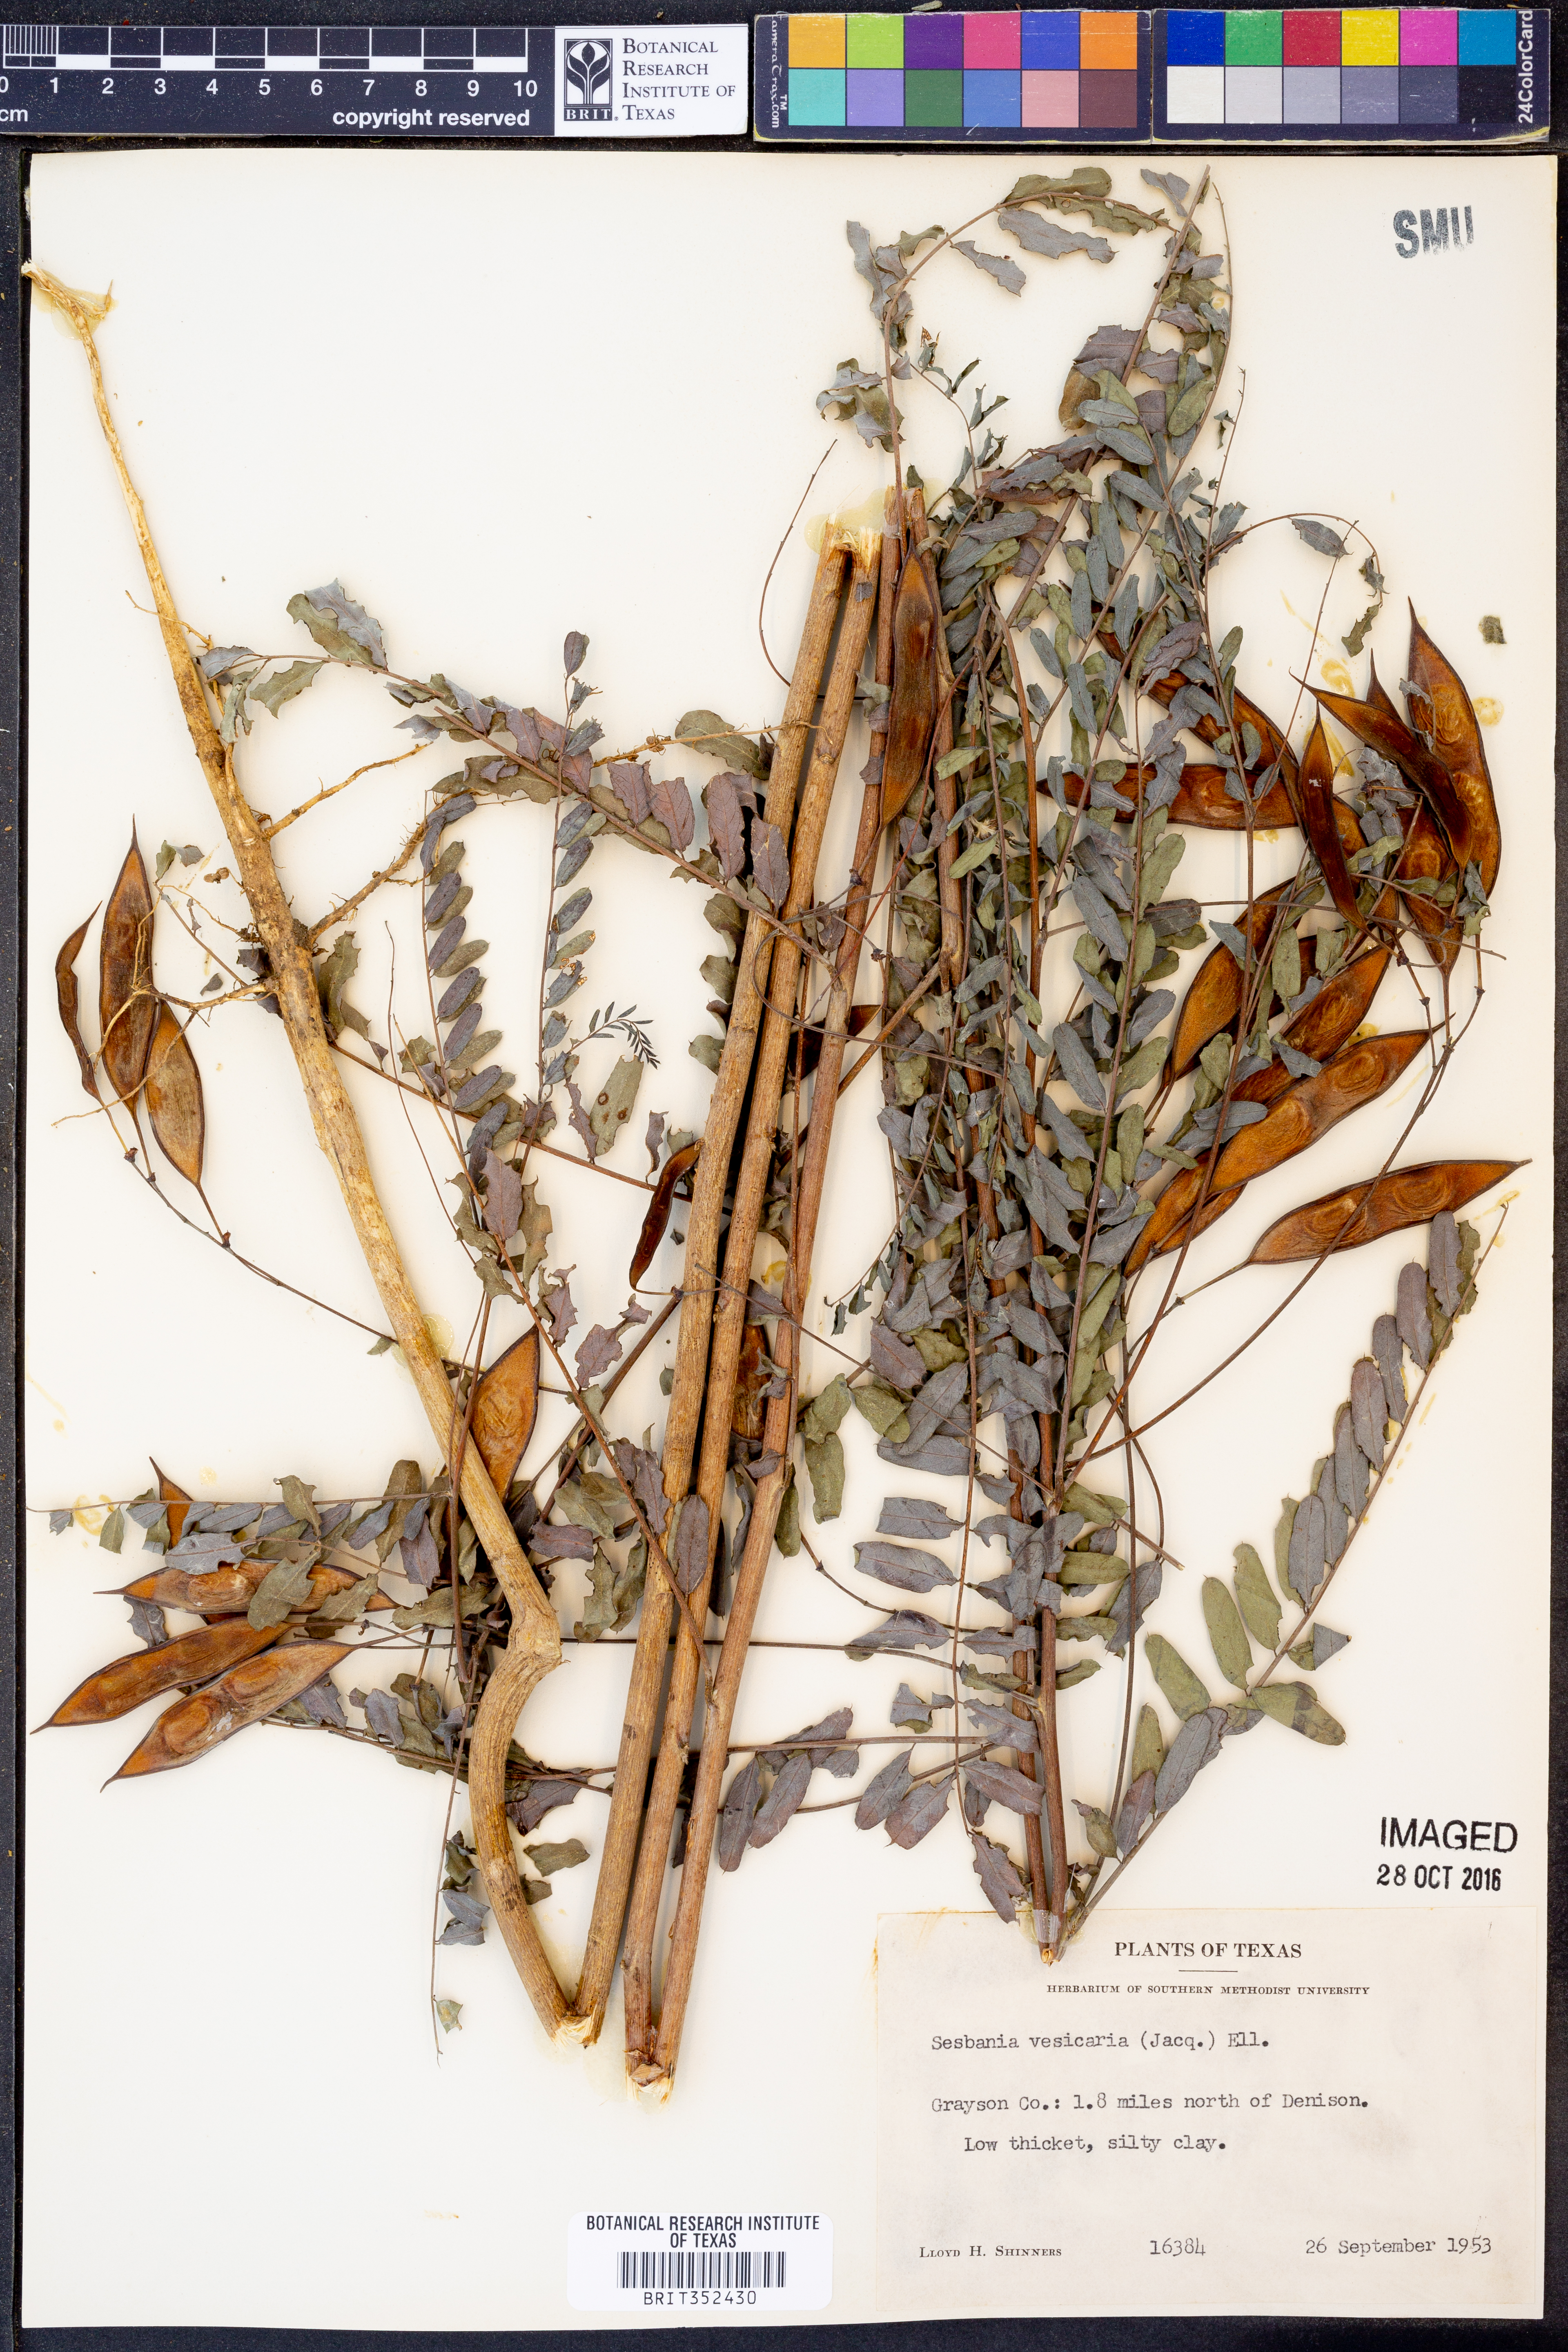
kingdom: Plantae
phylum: Tracheophyta
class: Magnoliopsida
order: Fabales
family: Fabaceae
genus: Sesbania
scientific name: Sesbania vesicaria
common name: Bagpod
